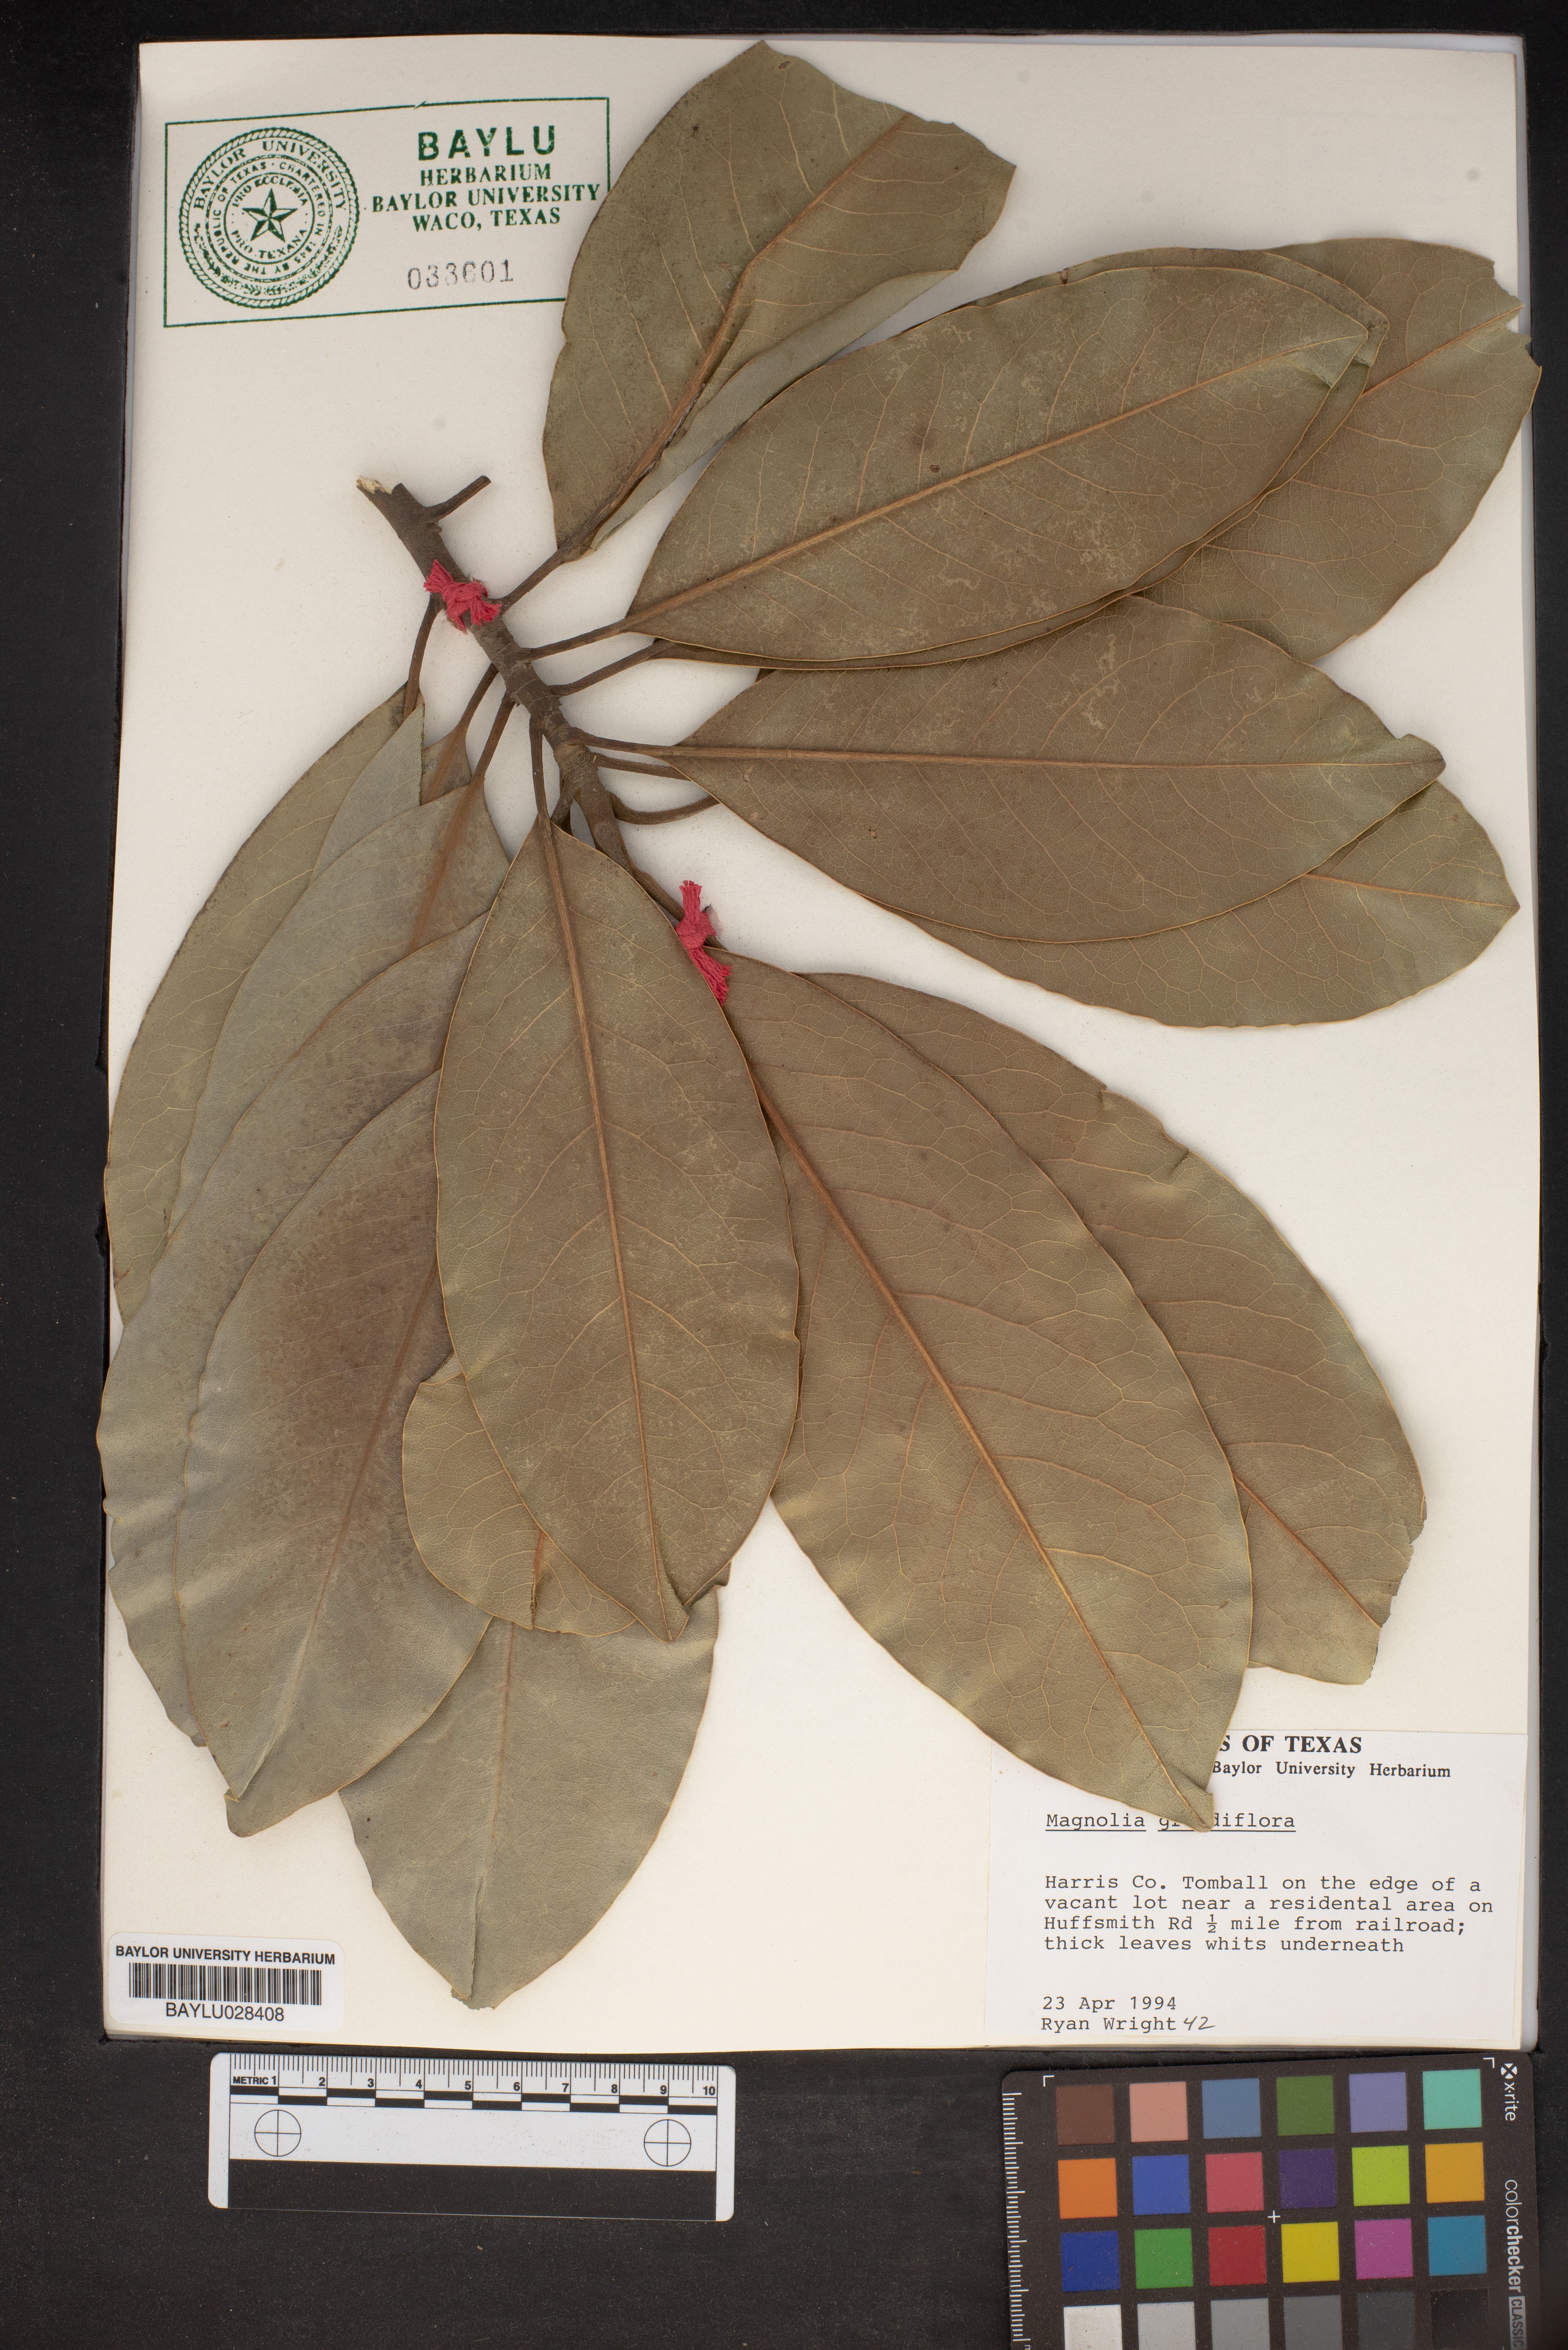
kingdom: Plantae
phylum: Tracheophyta
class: Magnoliopsida
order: Magnoliales
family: Magnoliaceae
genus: Magnolia
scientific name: Magnolia grandiflora
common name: Southern magnolia
